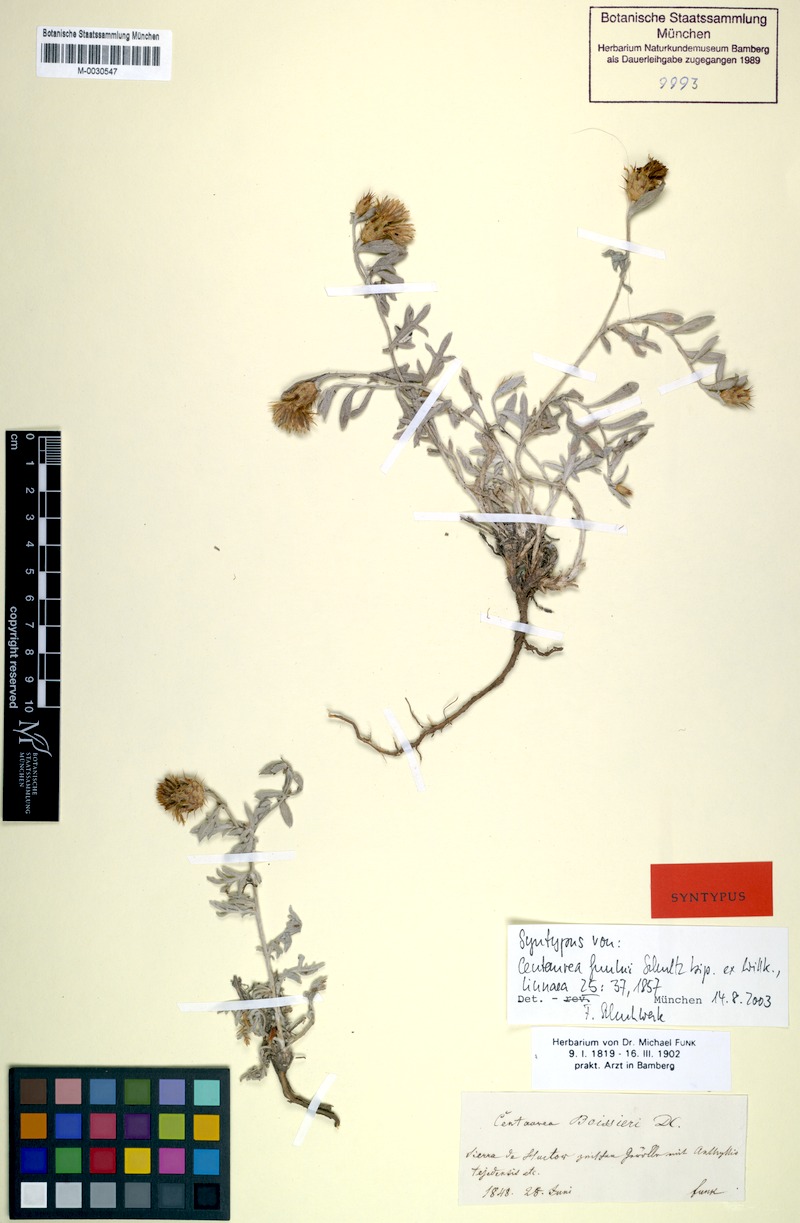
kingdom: Plantae
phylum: Tracheophyta
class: Magnoliopsida
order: Asterales
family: Asteraceae
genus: Centaurea
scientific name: Centaurea boissieri
